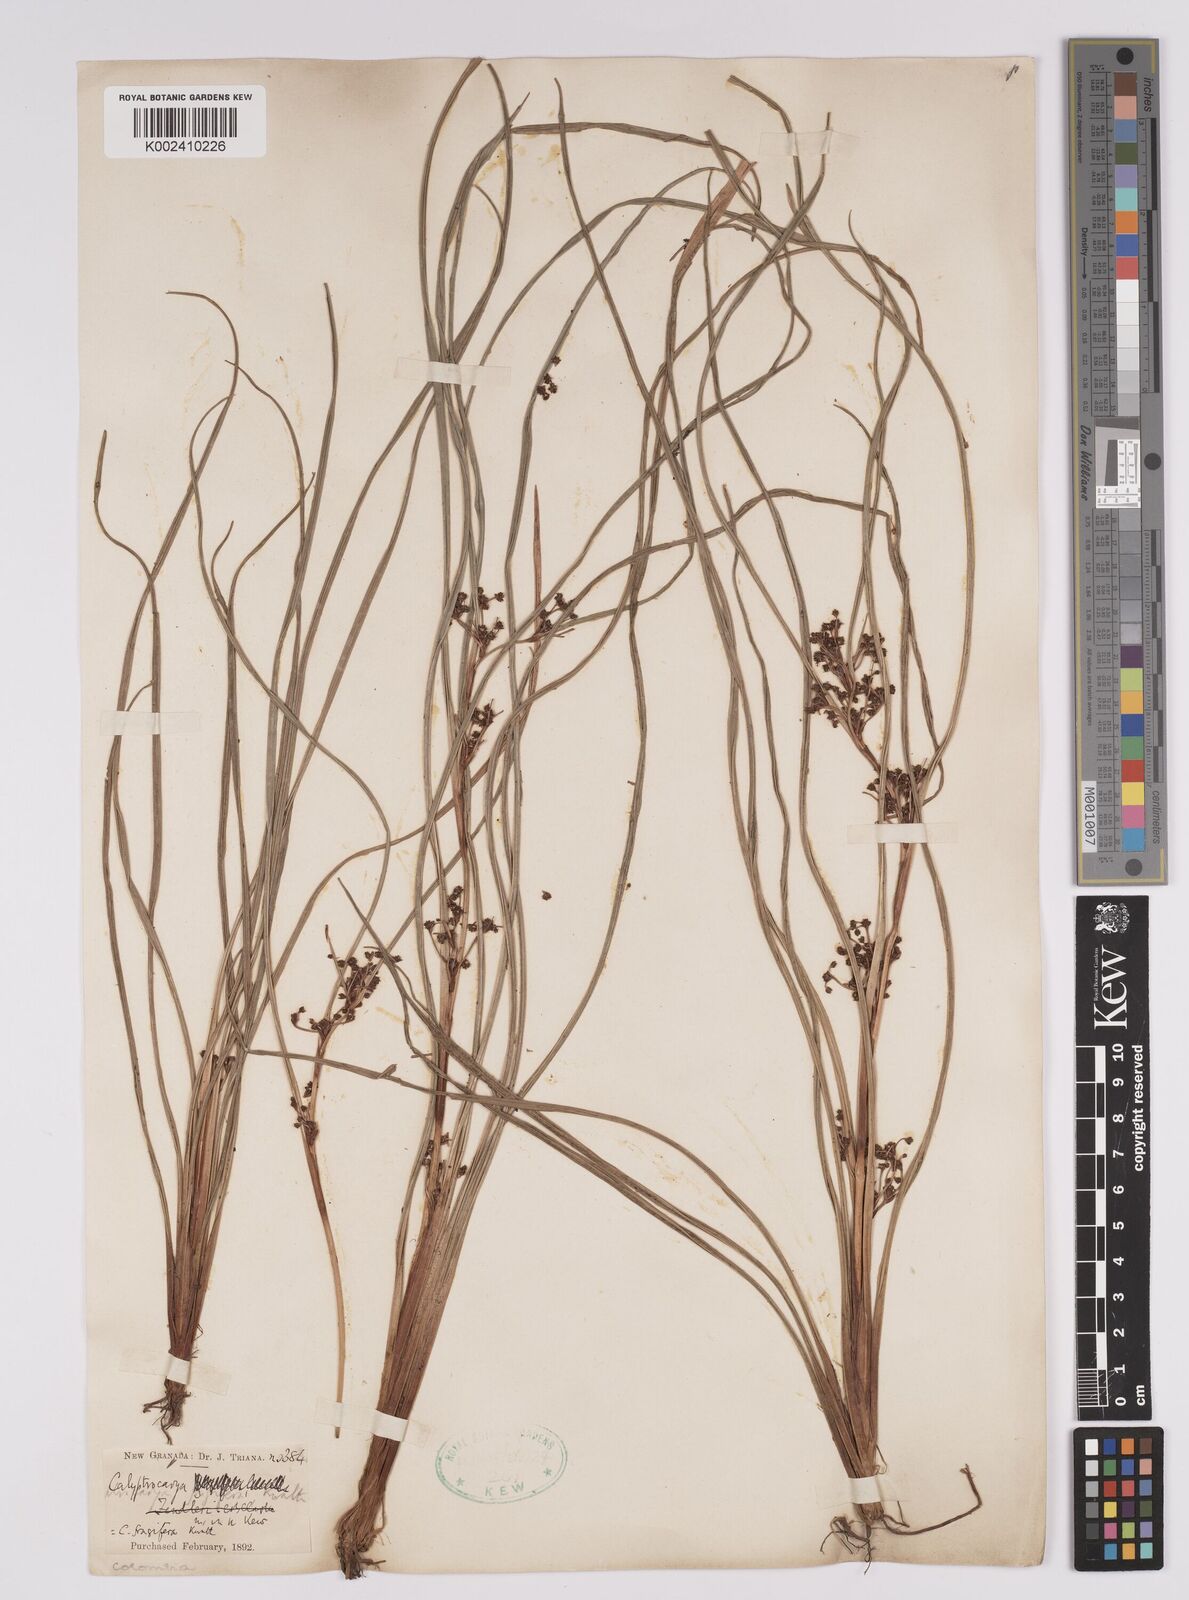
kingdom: Plantae
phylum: Tracheophyta
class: Liliopsida
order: Poales
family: Cyperaceae
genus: Calyptrocarya
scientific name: Calyptrocarya glomerulata
